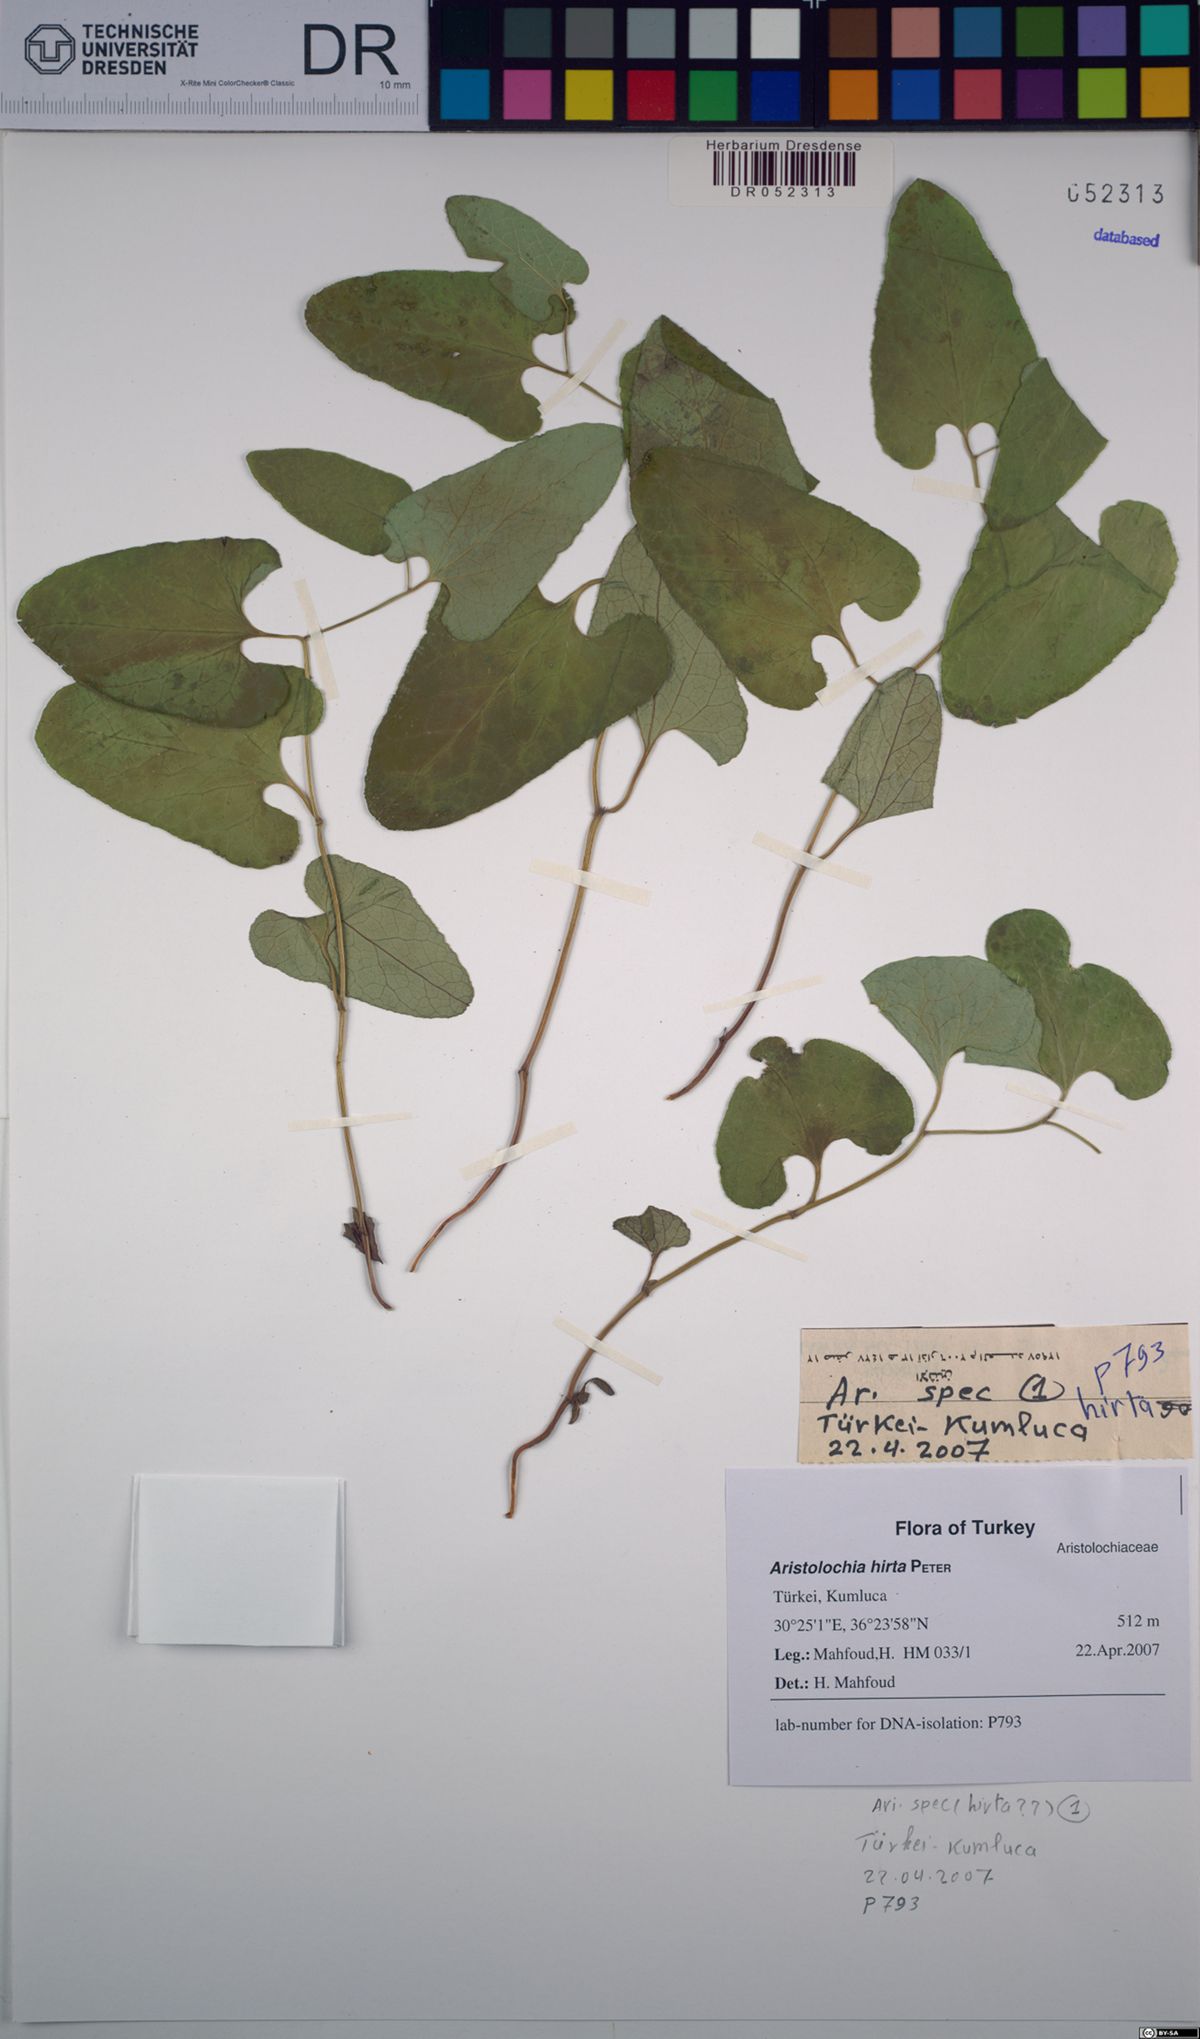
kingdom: Plantae
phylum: Tracheophyta
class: Magnoliopsida
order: Piperales
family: Aristolochiaceae
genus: Aristolochia
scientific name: Aristolochia hockii
